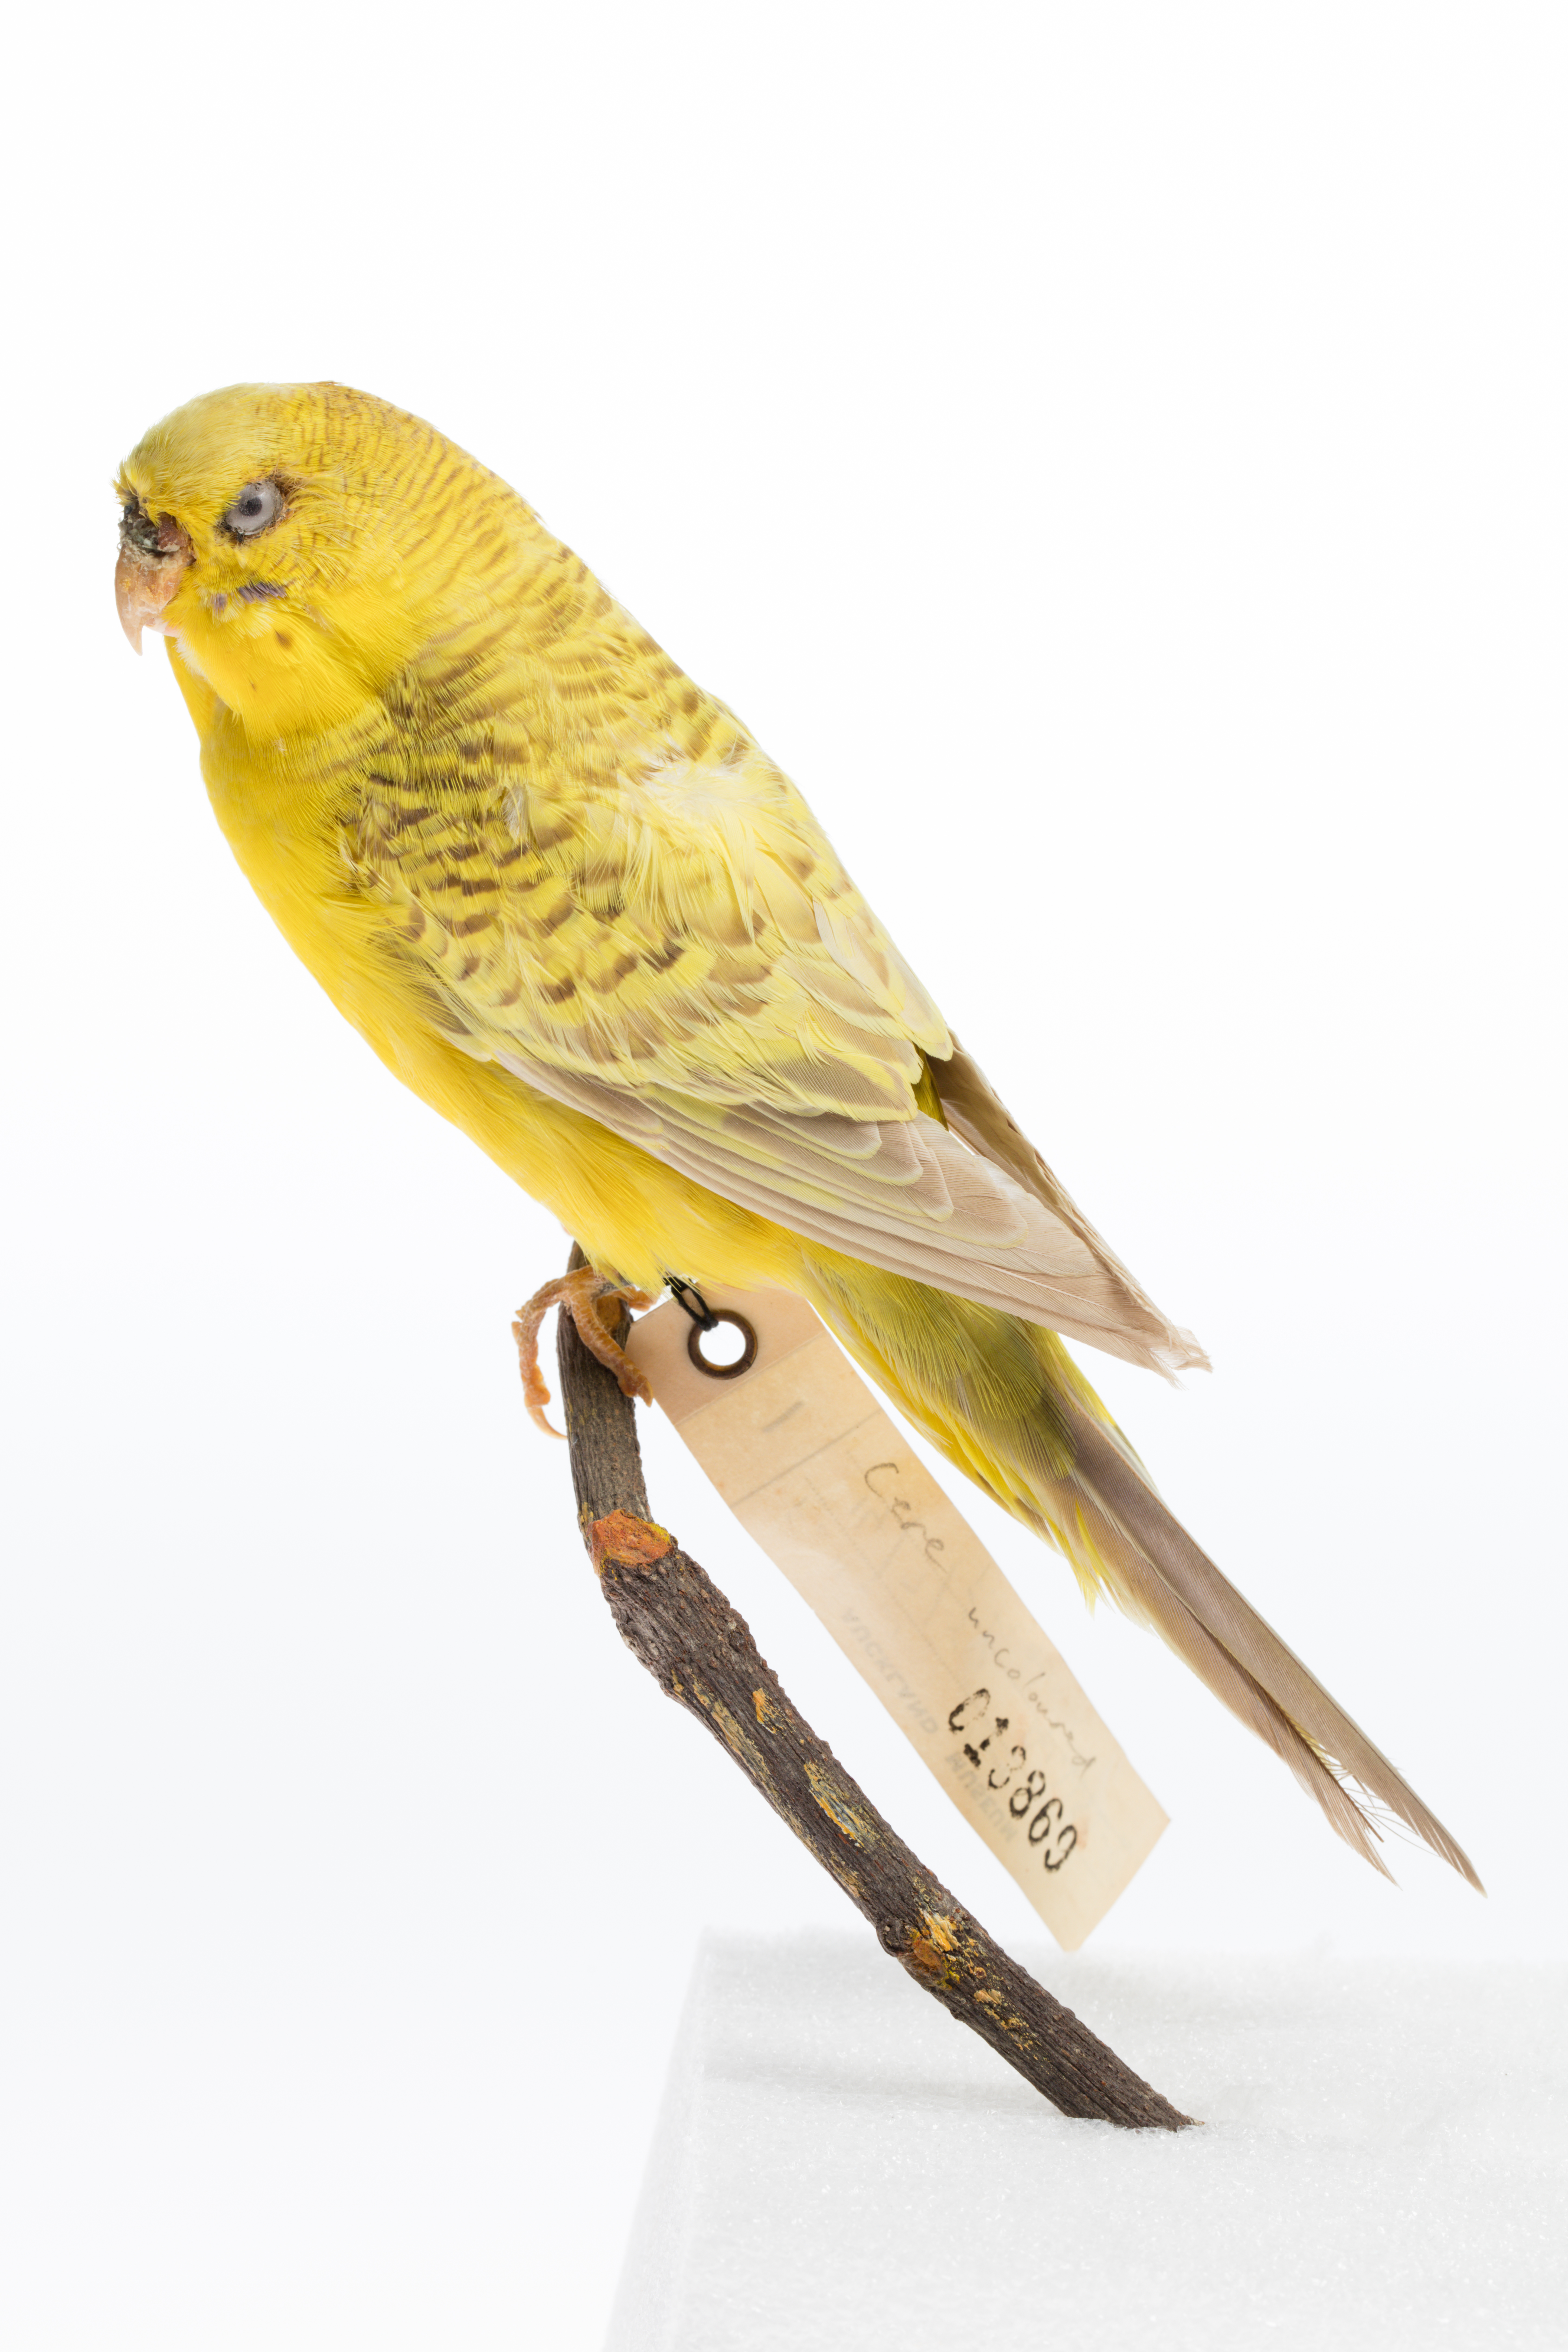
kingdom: Animalia
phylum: Chordata
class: Aves
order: Psittaciformes
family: Psittacidae
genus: Melopsittacus
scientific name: Melopsittacus undulatus
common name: Budgerigar
